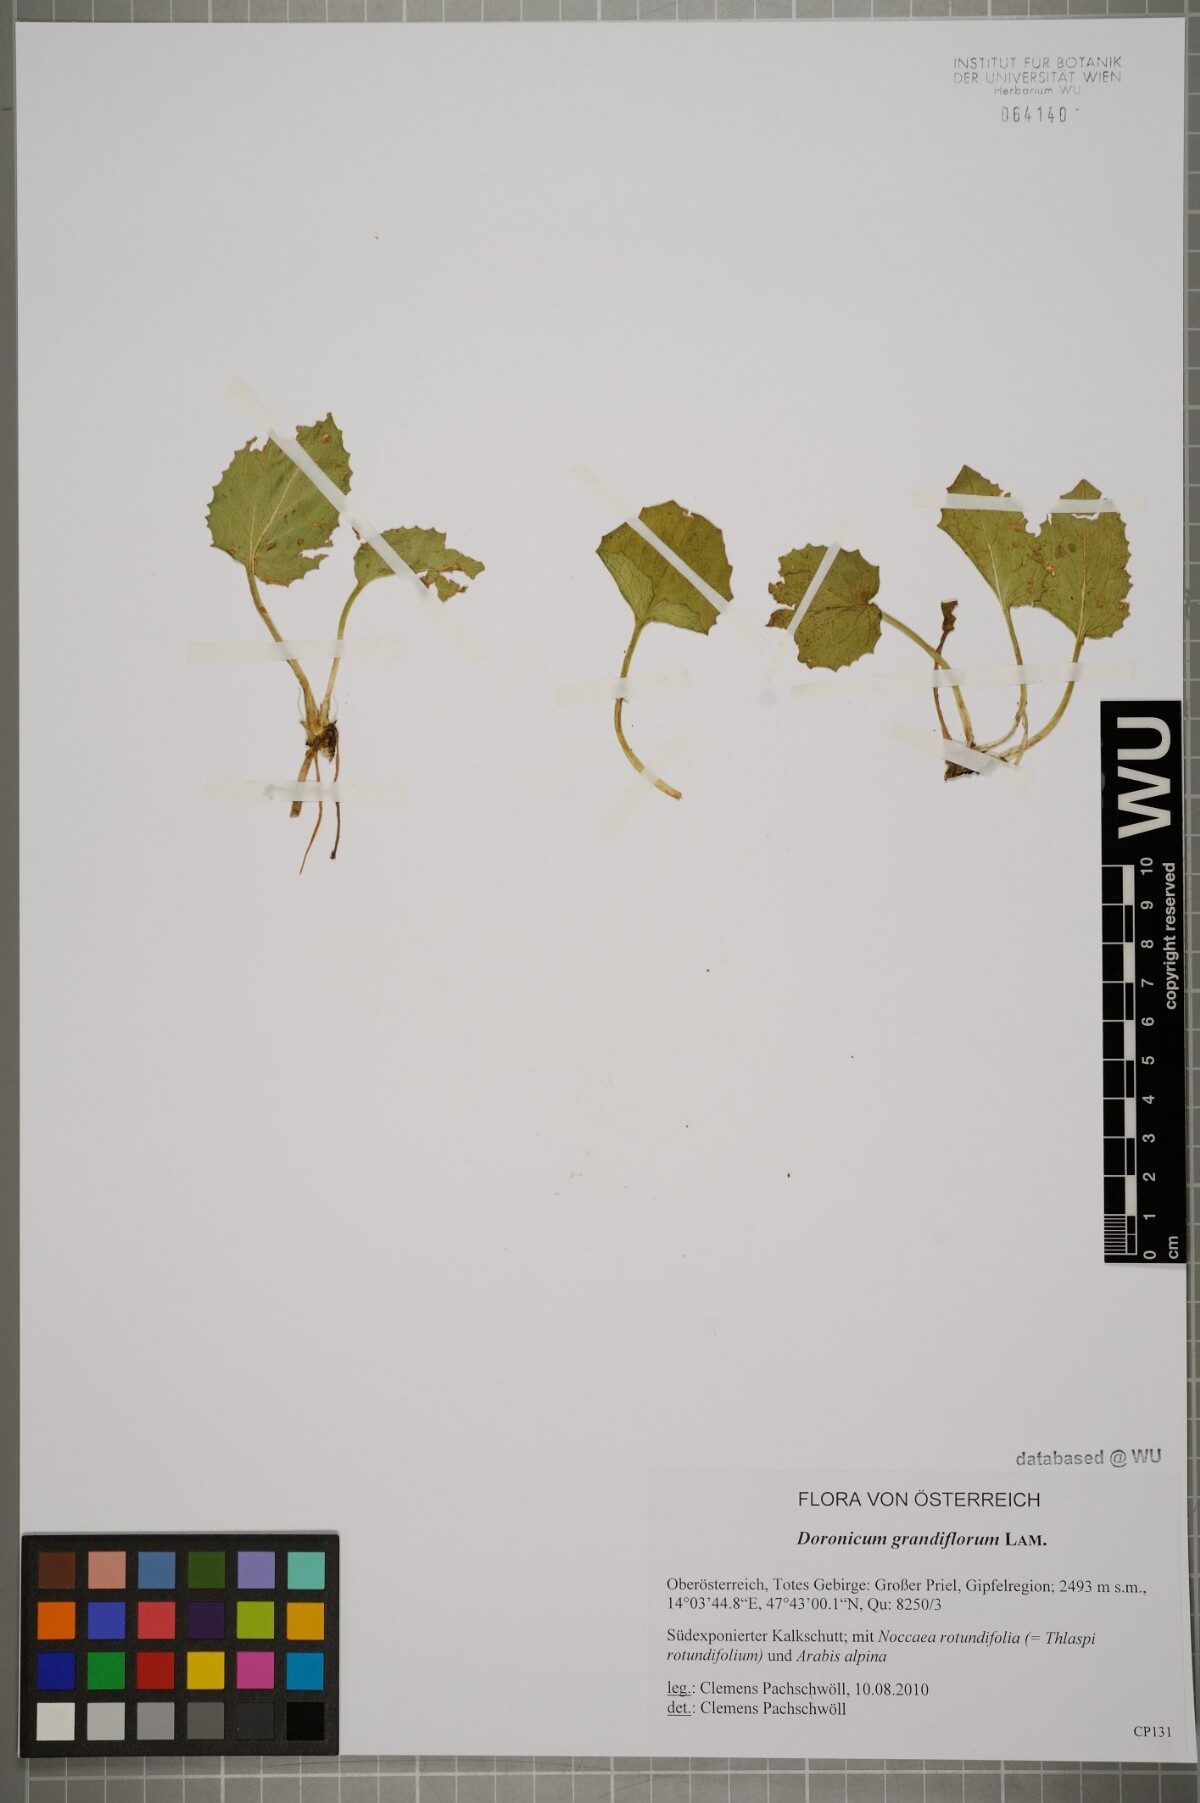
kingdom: Plantae
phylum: Tracheophyta
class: Magnoliopsida
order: Asterales
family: Asteraceae
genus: Doronicum
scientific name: Doronicum grandiflorum
